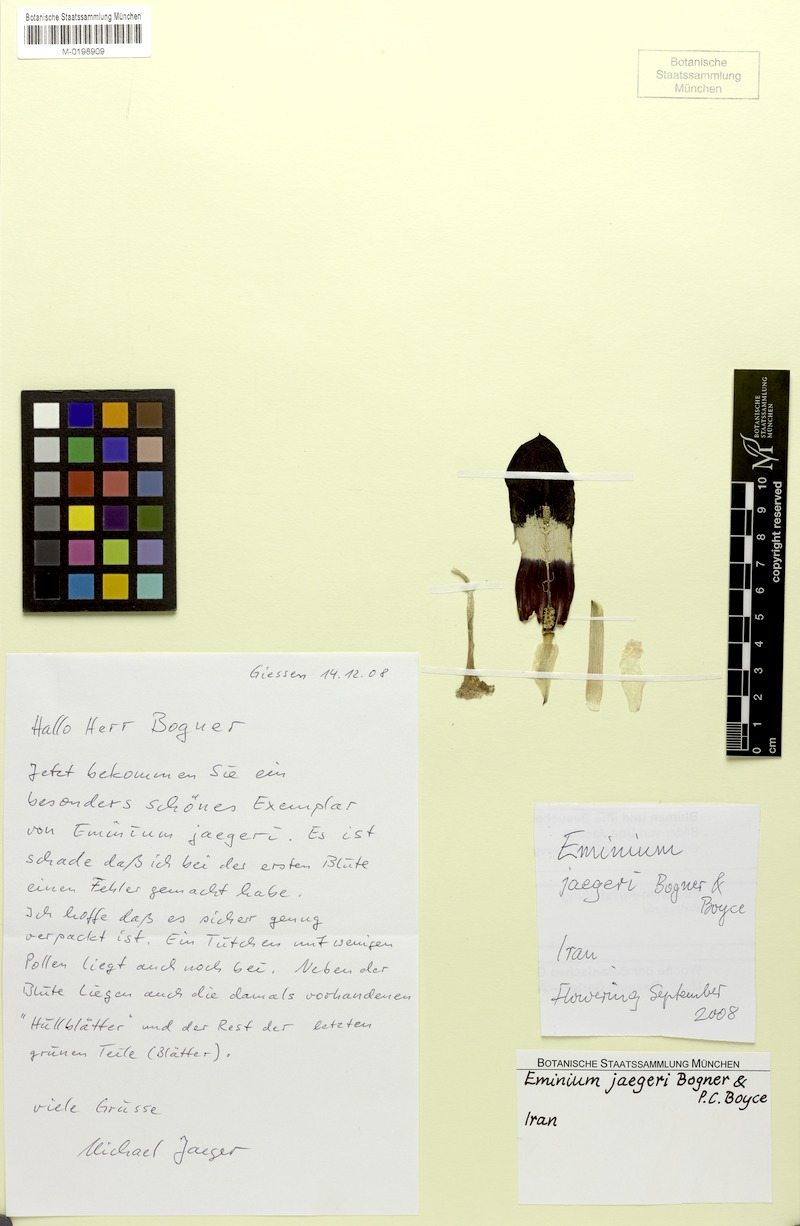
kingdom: Plantae
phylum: Tracheophyta
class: Liliopsida
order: Alismatales
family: Araceae
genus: Eminium
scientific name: Eminium jaegeri
